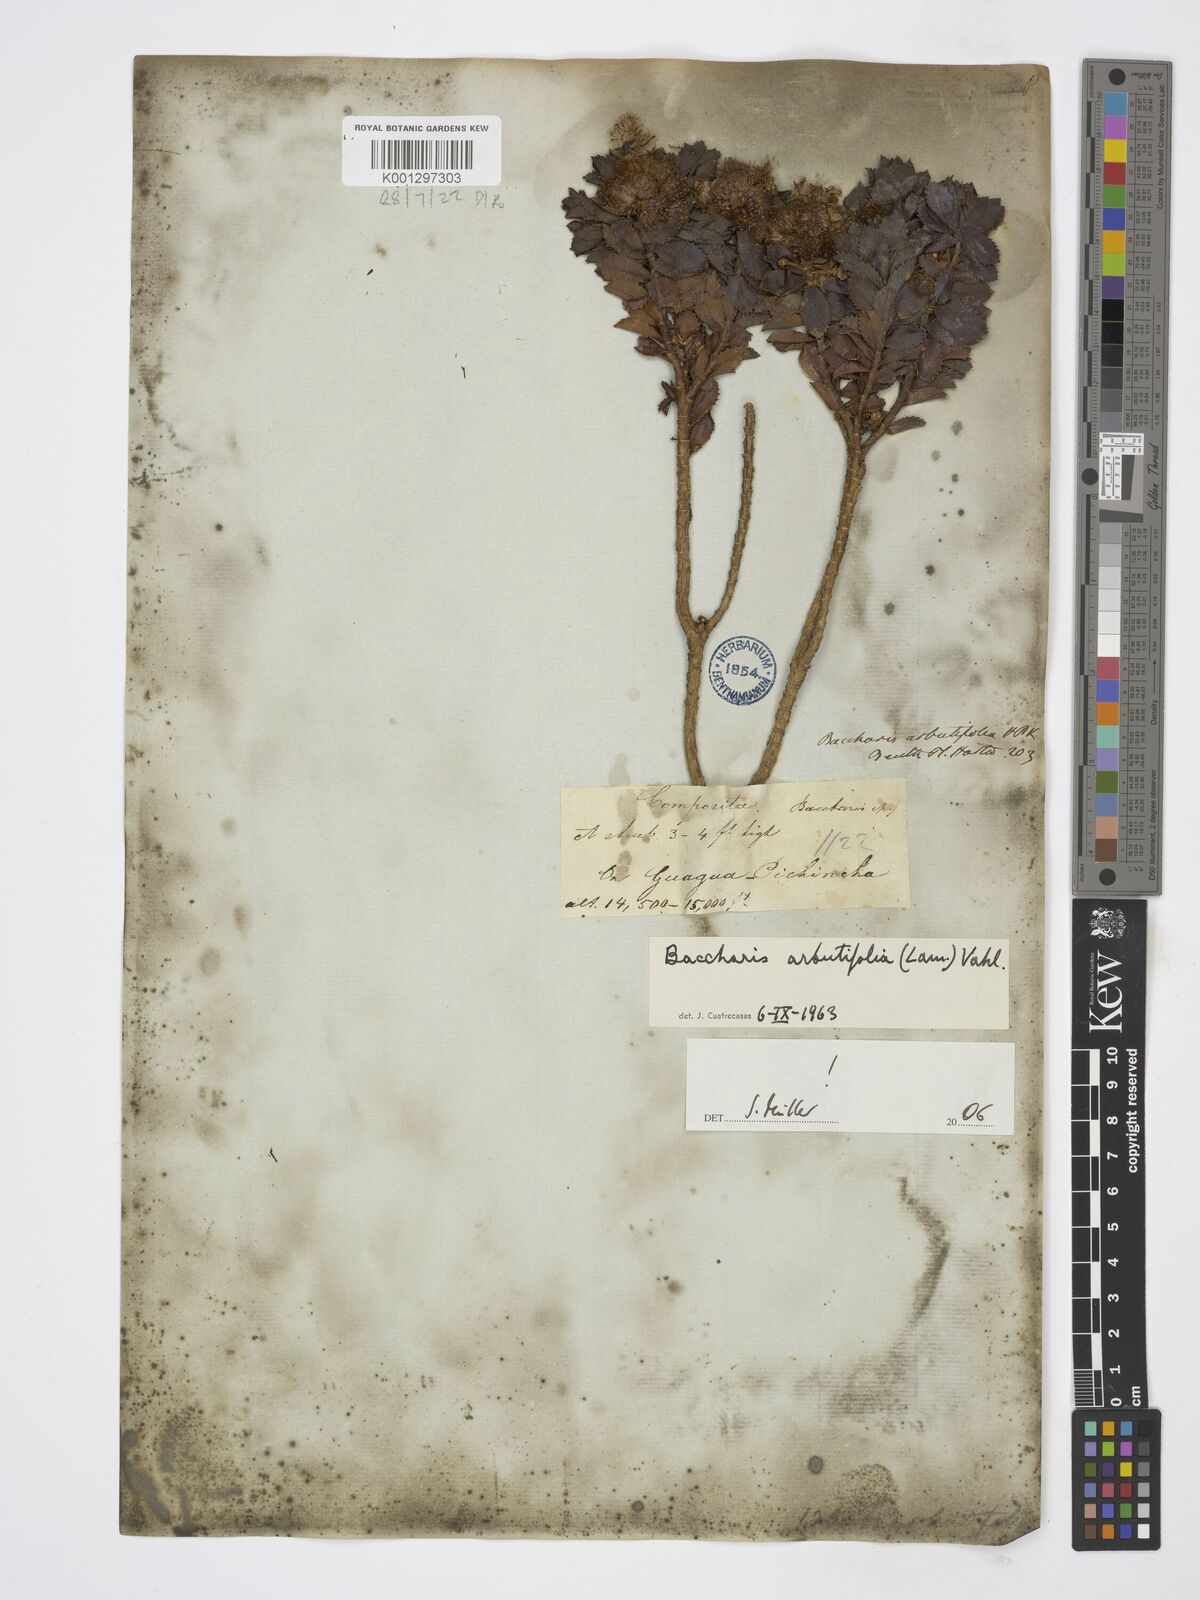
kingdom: Plantae
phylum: Tracheophyta
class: Magnoliopsida
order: Asterales
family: Asteraceae
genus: Baccharis
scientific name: Baccharis arbutifolia
